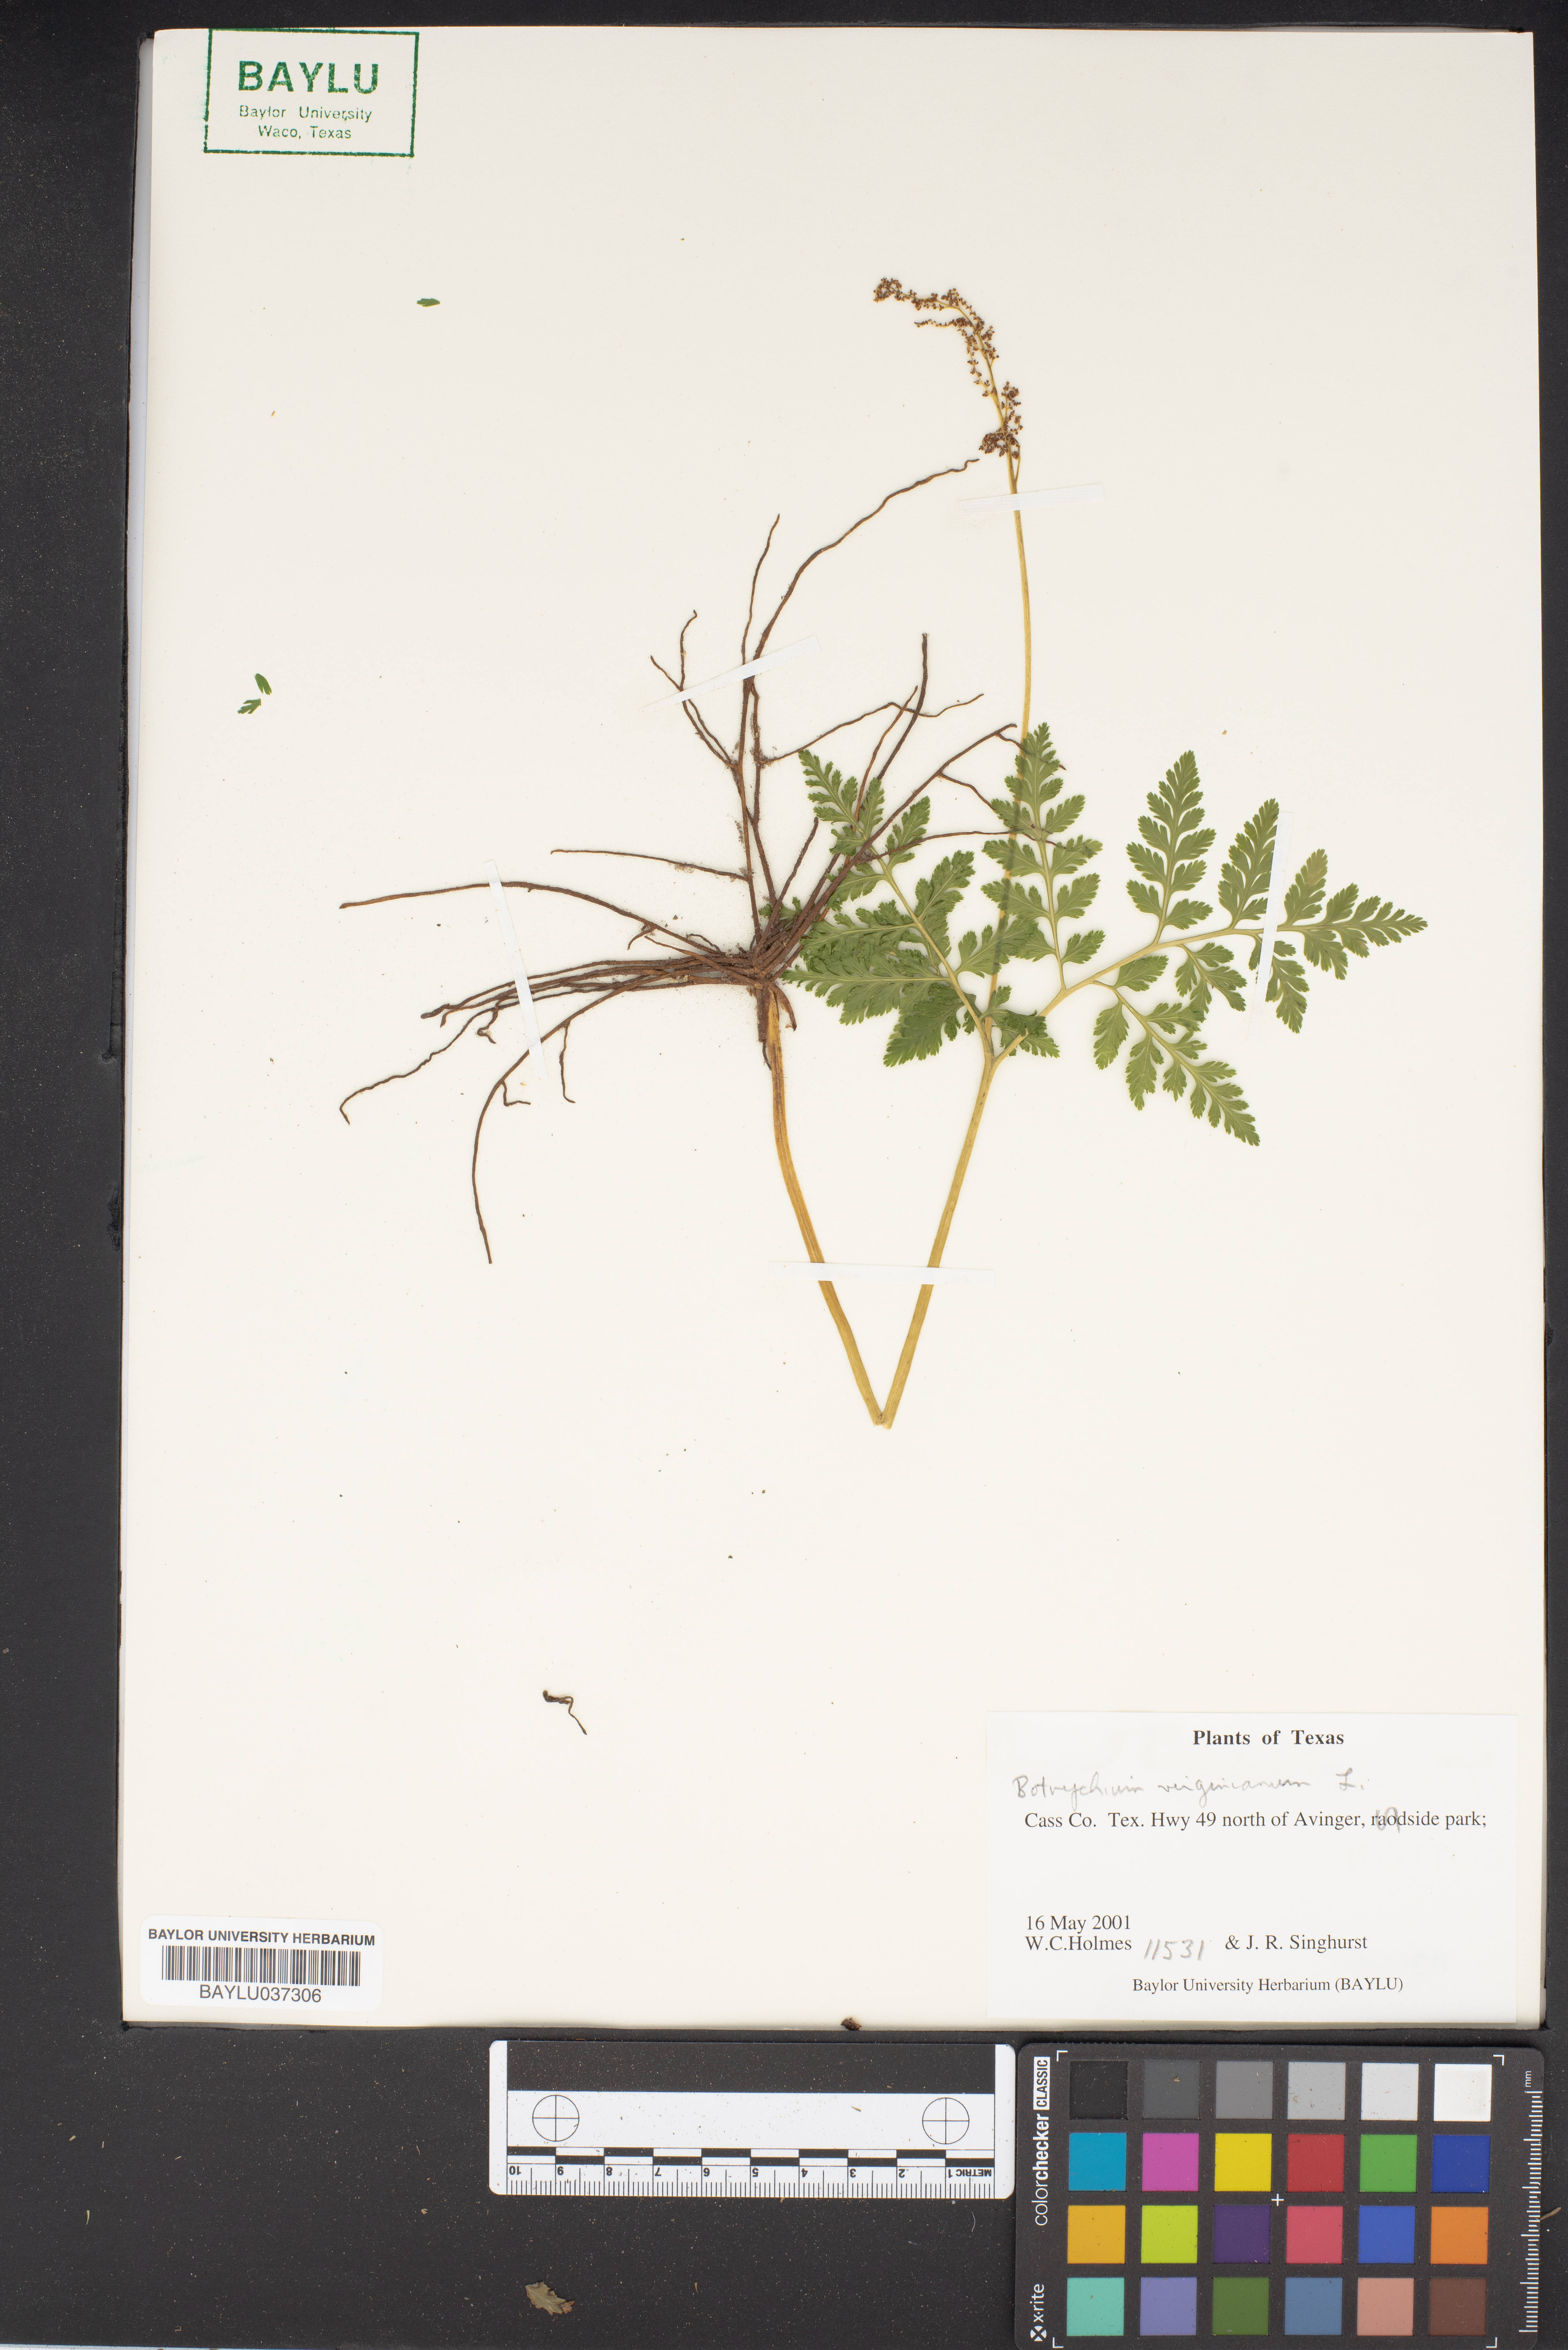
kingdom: Plantae
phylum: Tracheophyta
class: Polypodiopsida
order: Ophioglossales
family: Ophioglossaceae
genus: Botrypus
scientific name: Botrypus virginianus
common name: Common grapefern
